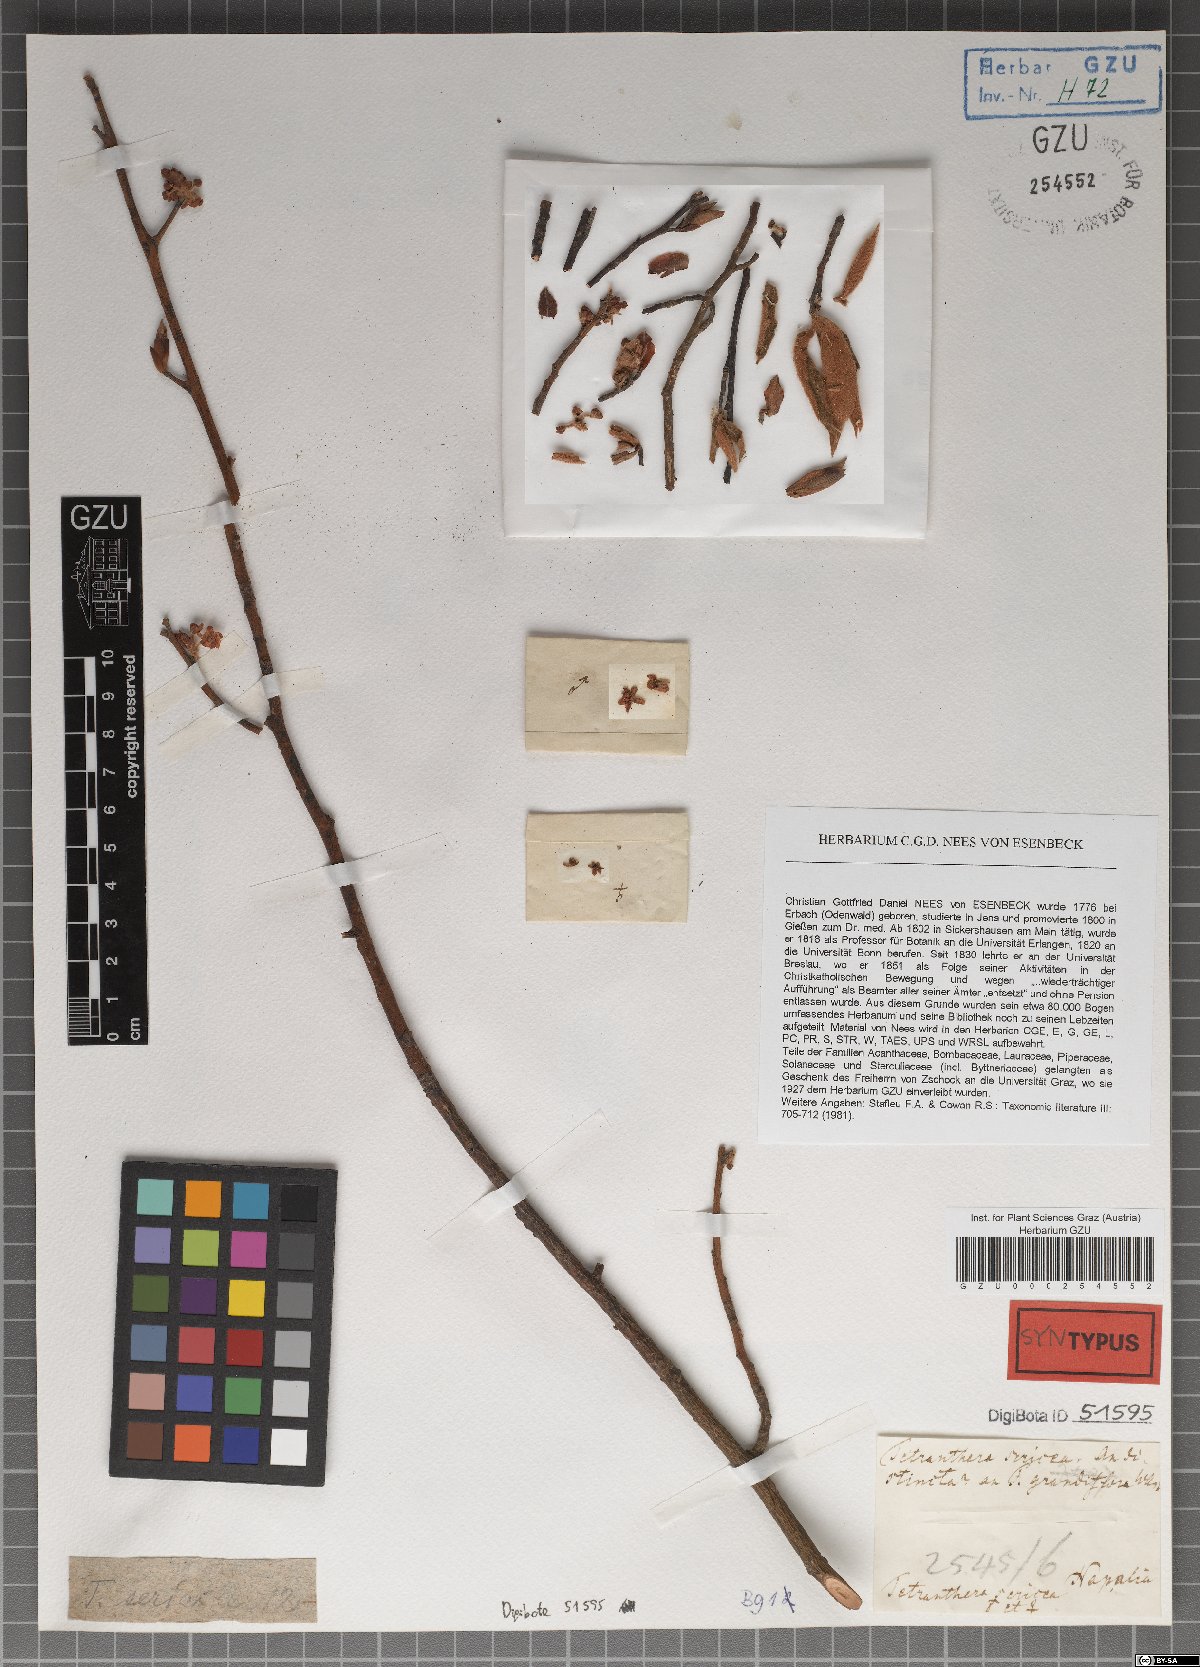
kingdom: Plantae
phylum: Tracheophyta
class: Magnoliopsida
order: Laurales
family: Lauraceae
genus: Litsea
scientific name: Litsea sericea
